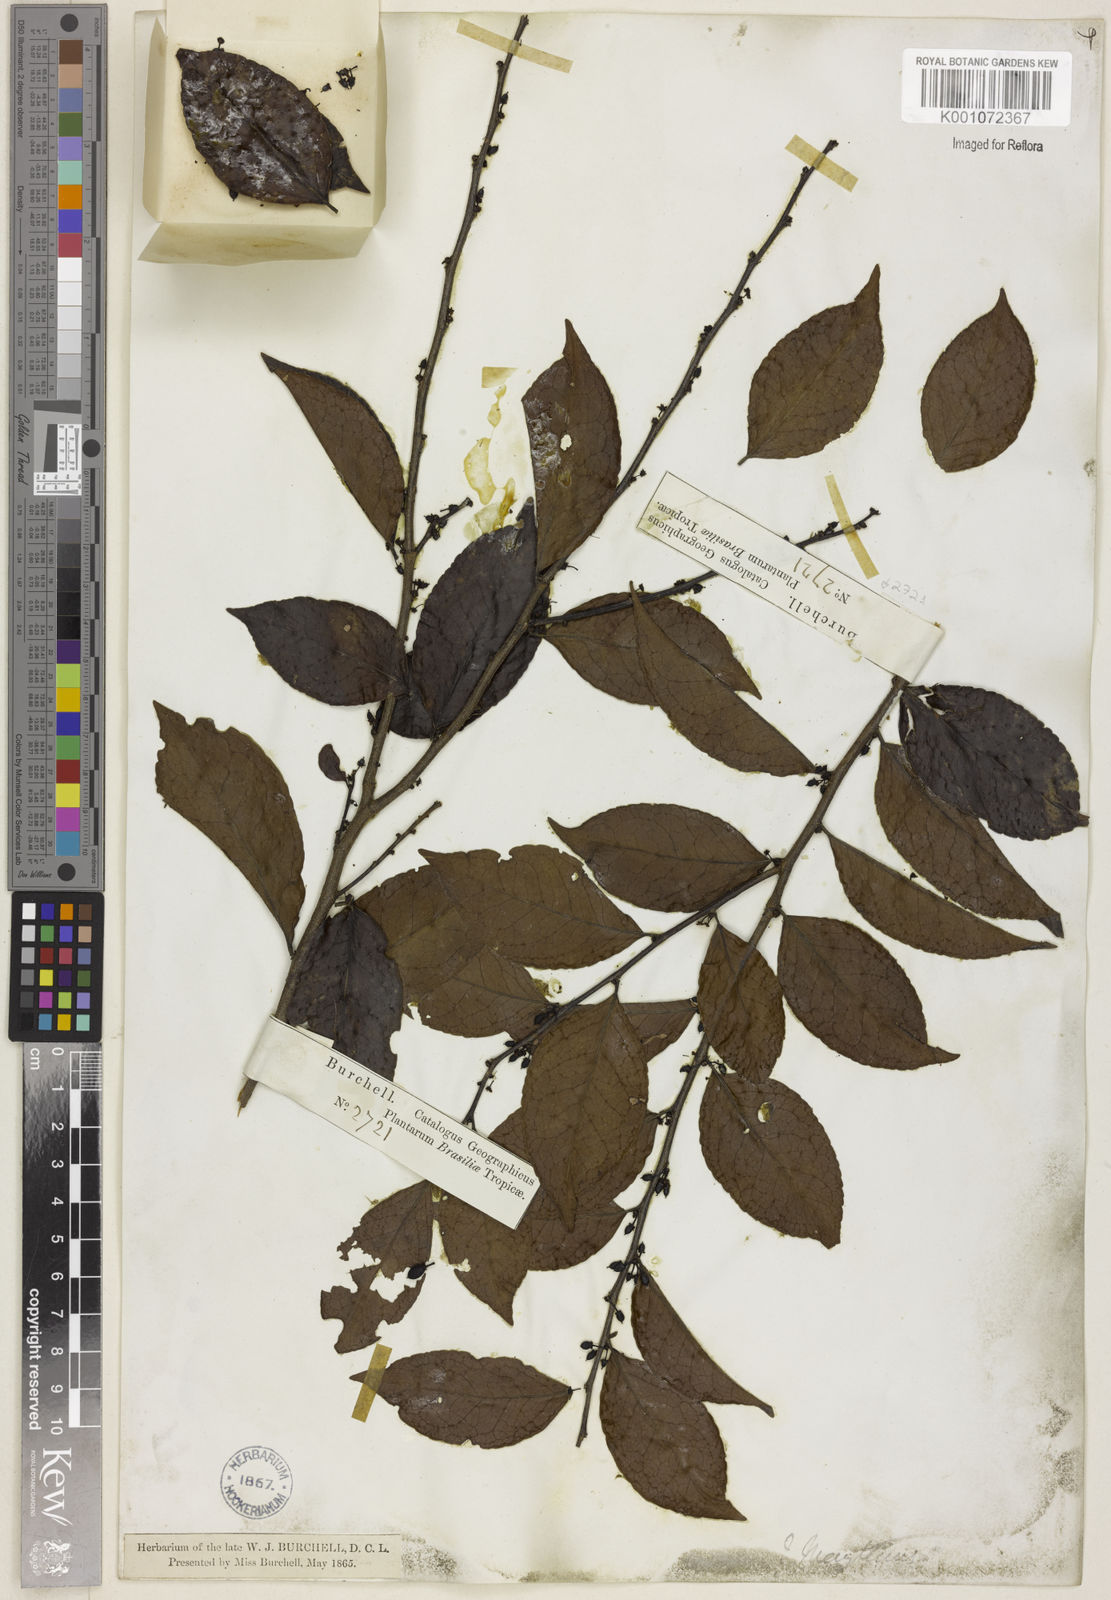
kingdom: Plantae
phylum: Tracheophyta
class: Magnoliopsida
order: Celastrales
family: Celastraceae
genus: Maytenus
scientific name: Maytenus
